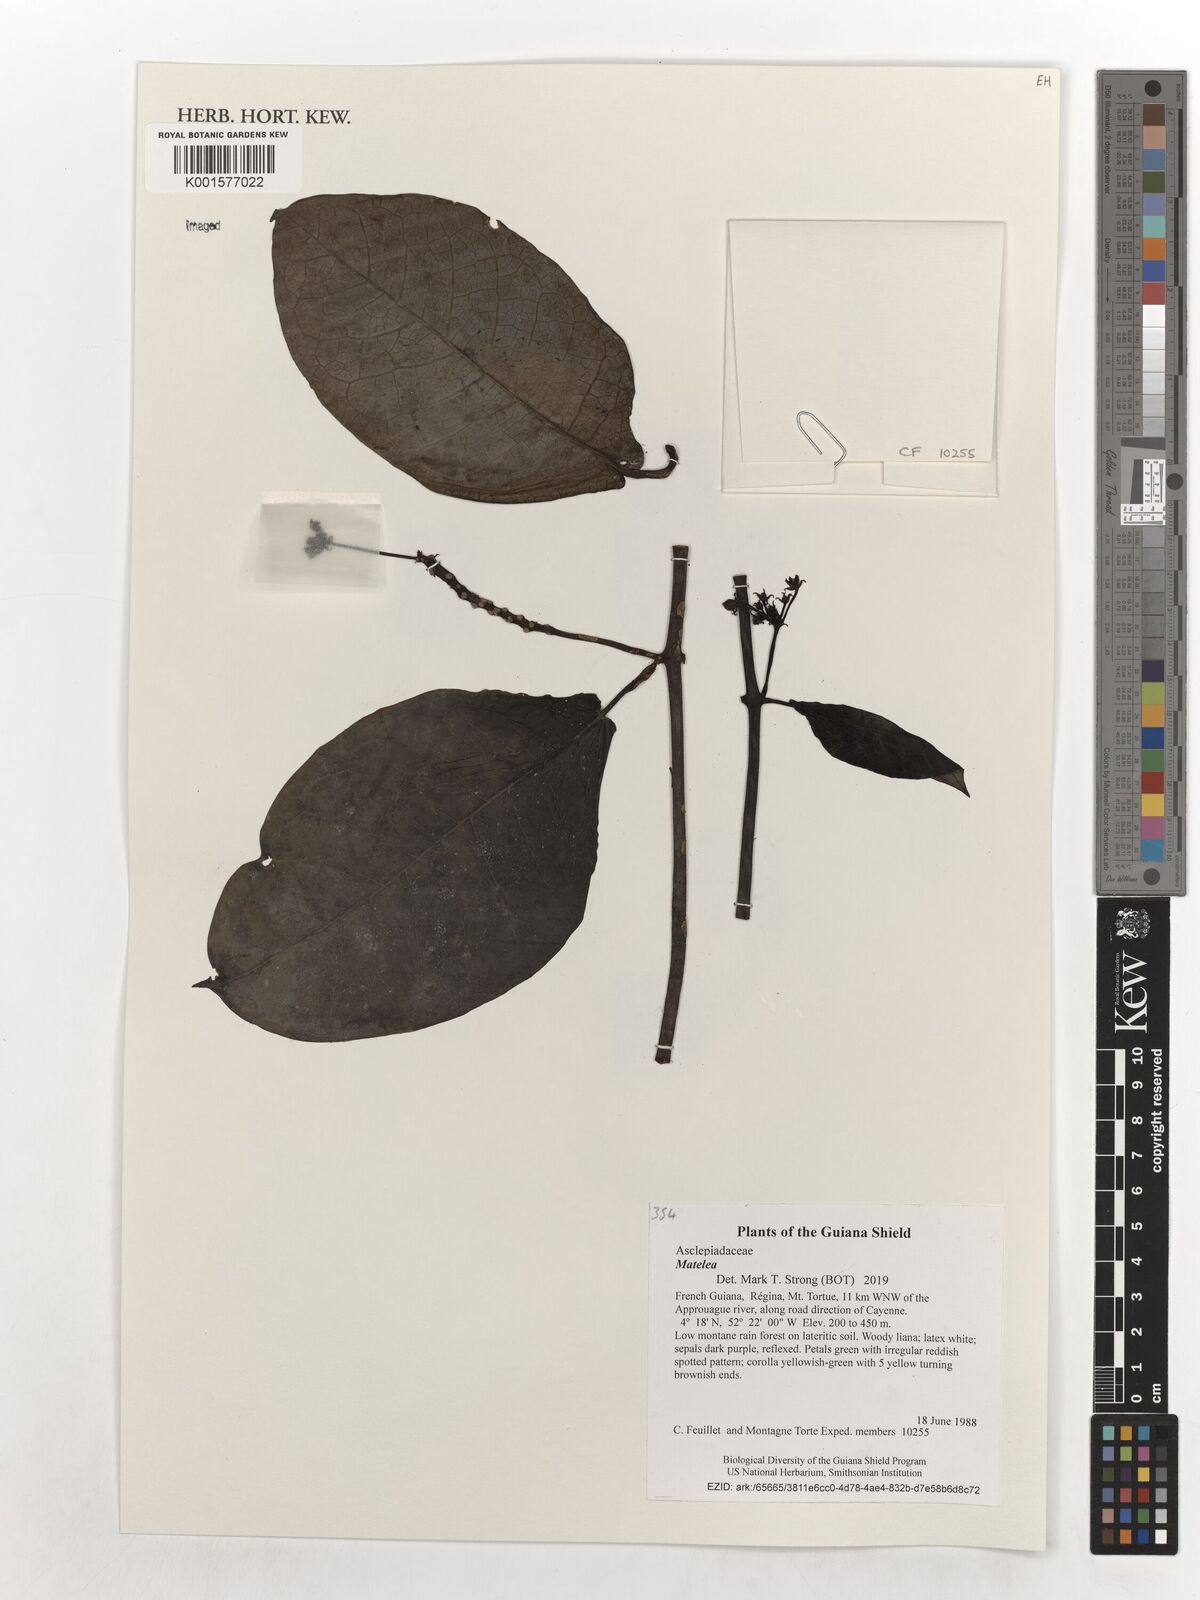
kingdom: Plantae
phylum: Tracheophyta
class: Magnoliopsida
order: Gentianales
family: Apocynaceae
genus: Matelea
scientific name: Matelea
